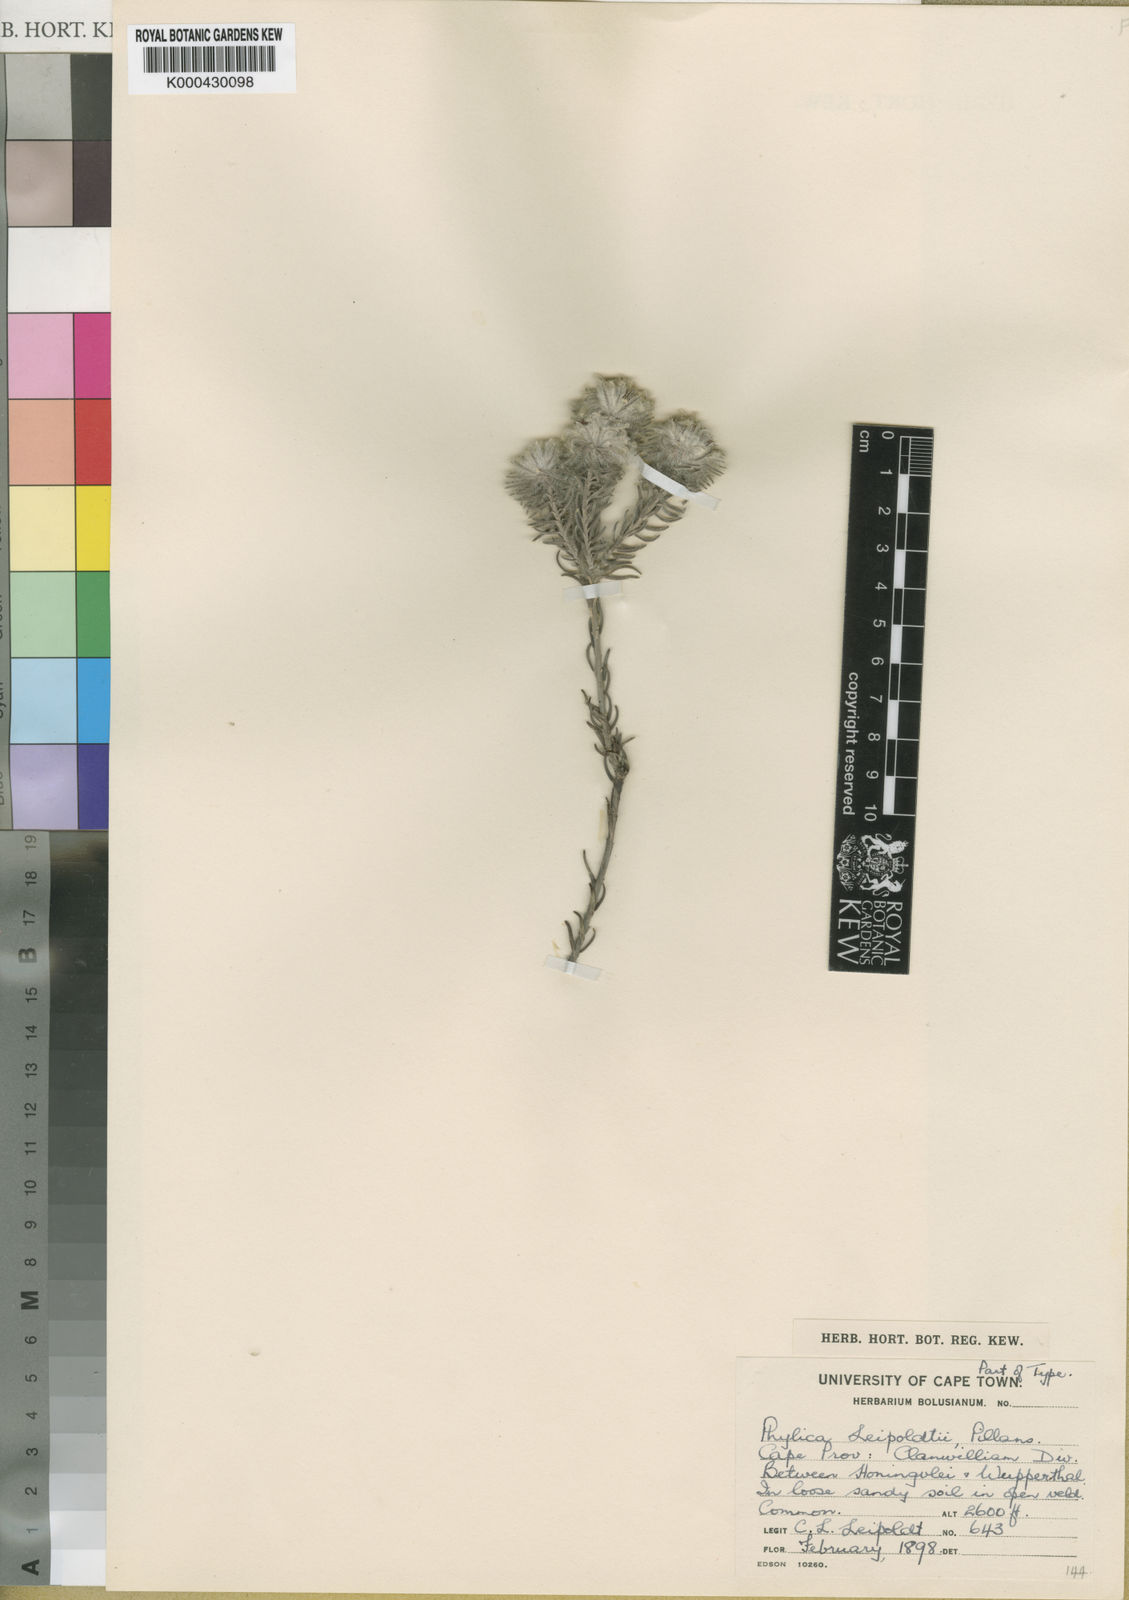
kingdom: Plantae
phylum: Tracheophyta
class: Magnoliopsida
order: Rosales
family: Rhamnaceae
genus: Phylica
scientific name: Phylica leipoldtii
